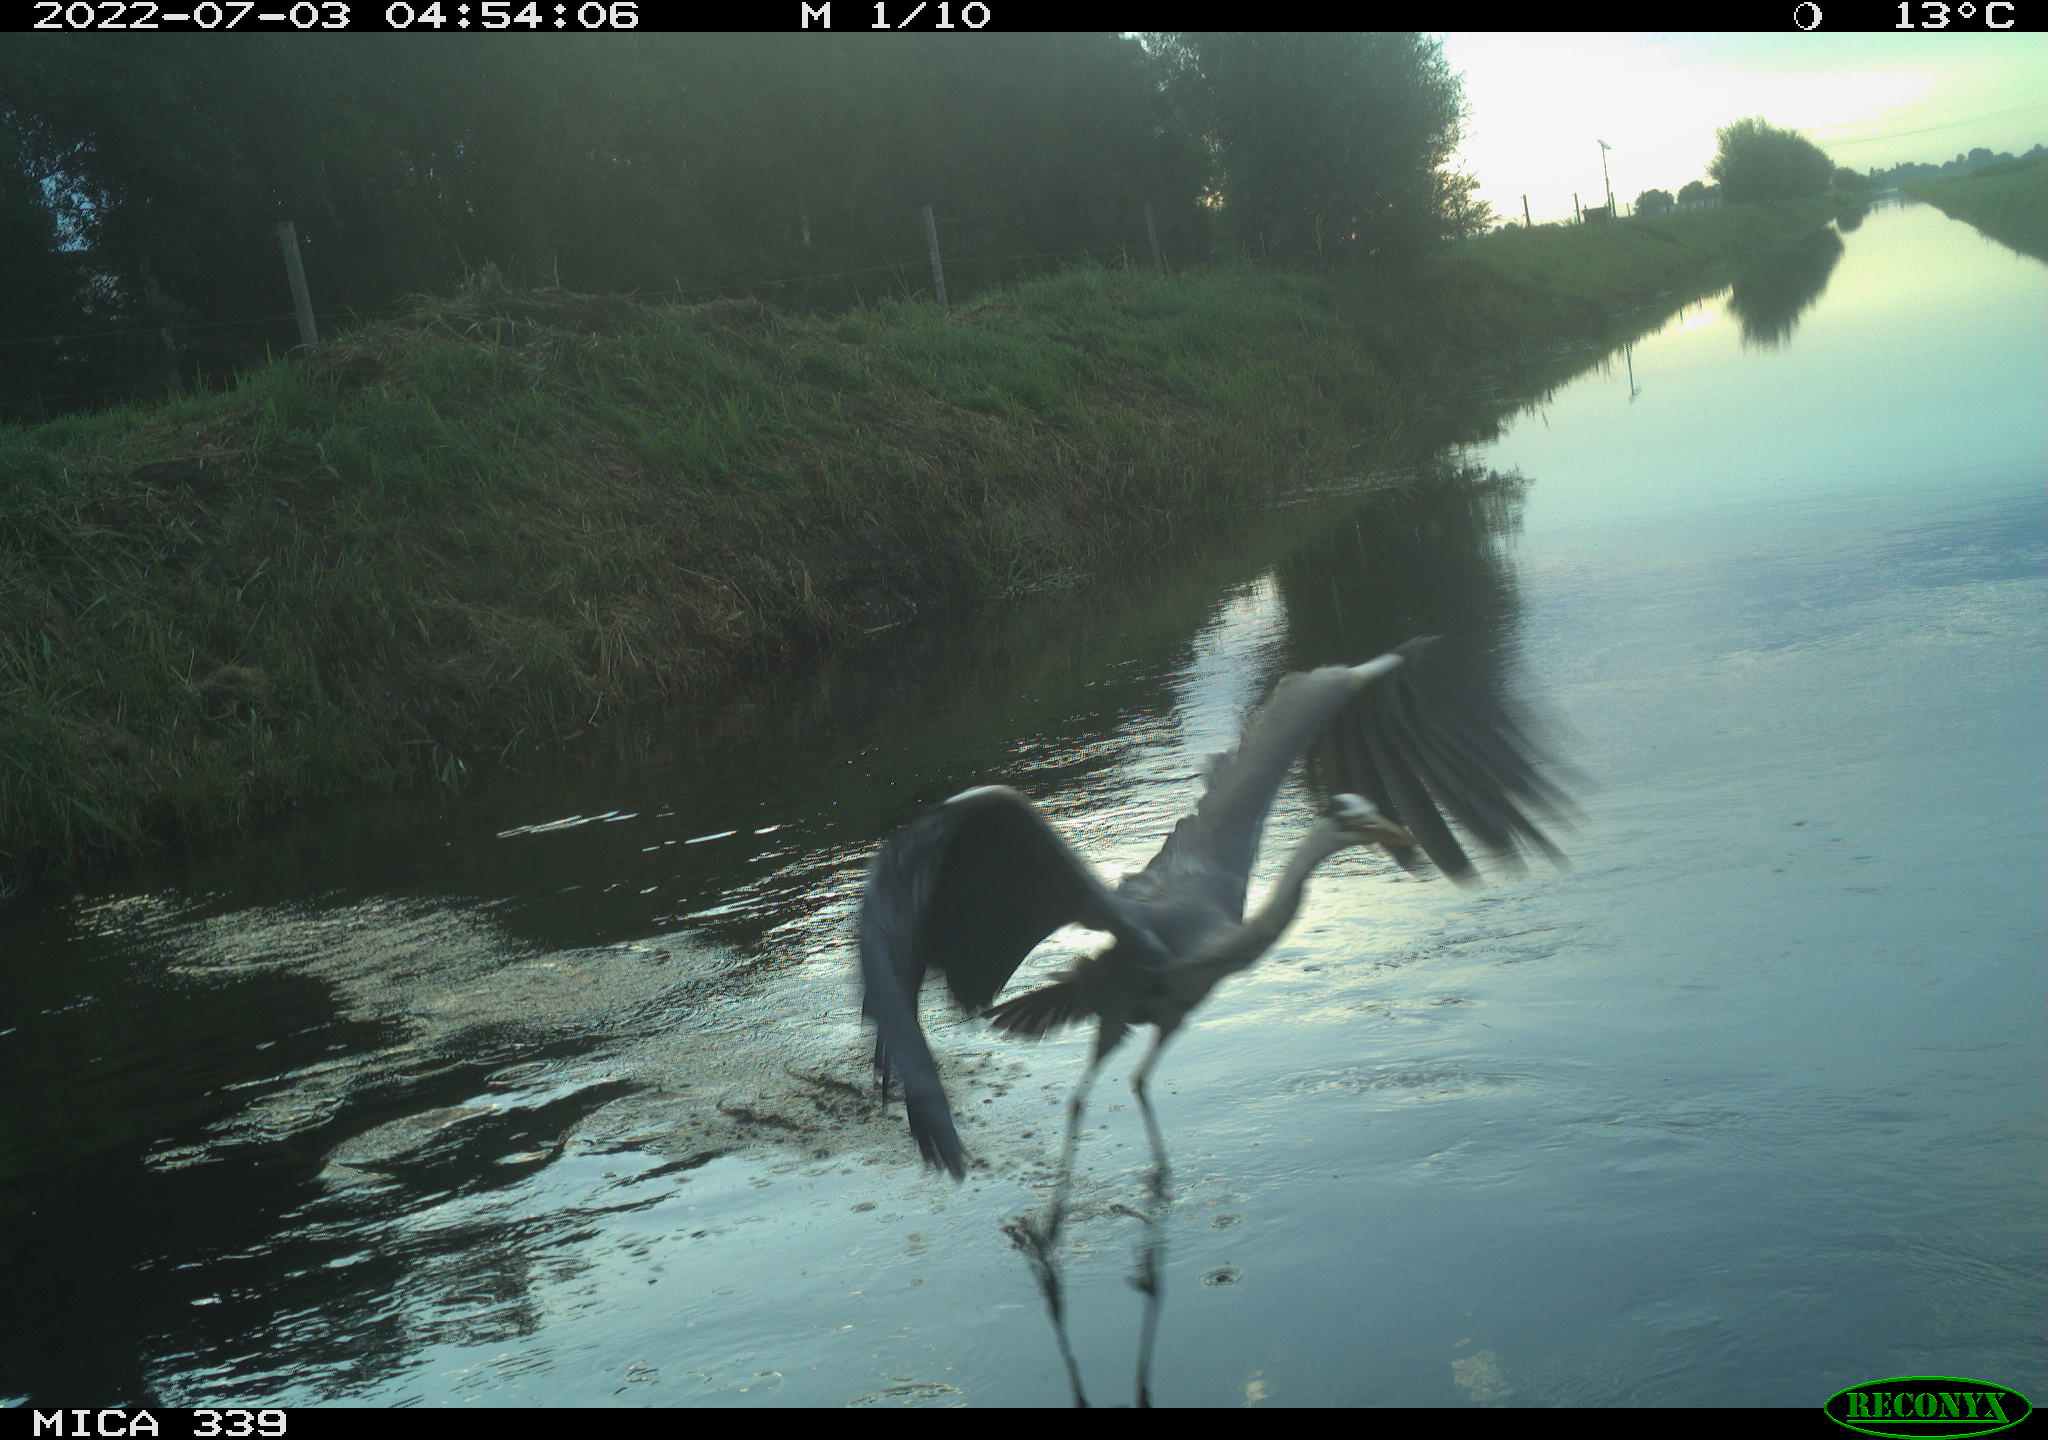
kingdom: Animalia
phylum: Chordata
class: Aves
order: Pelecaniformes
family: Ardeidae
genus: Ardea
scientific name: Ardea cinerea
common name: Grey heron
